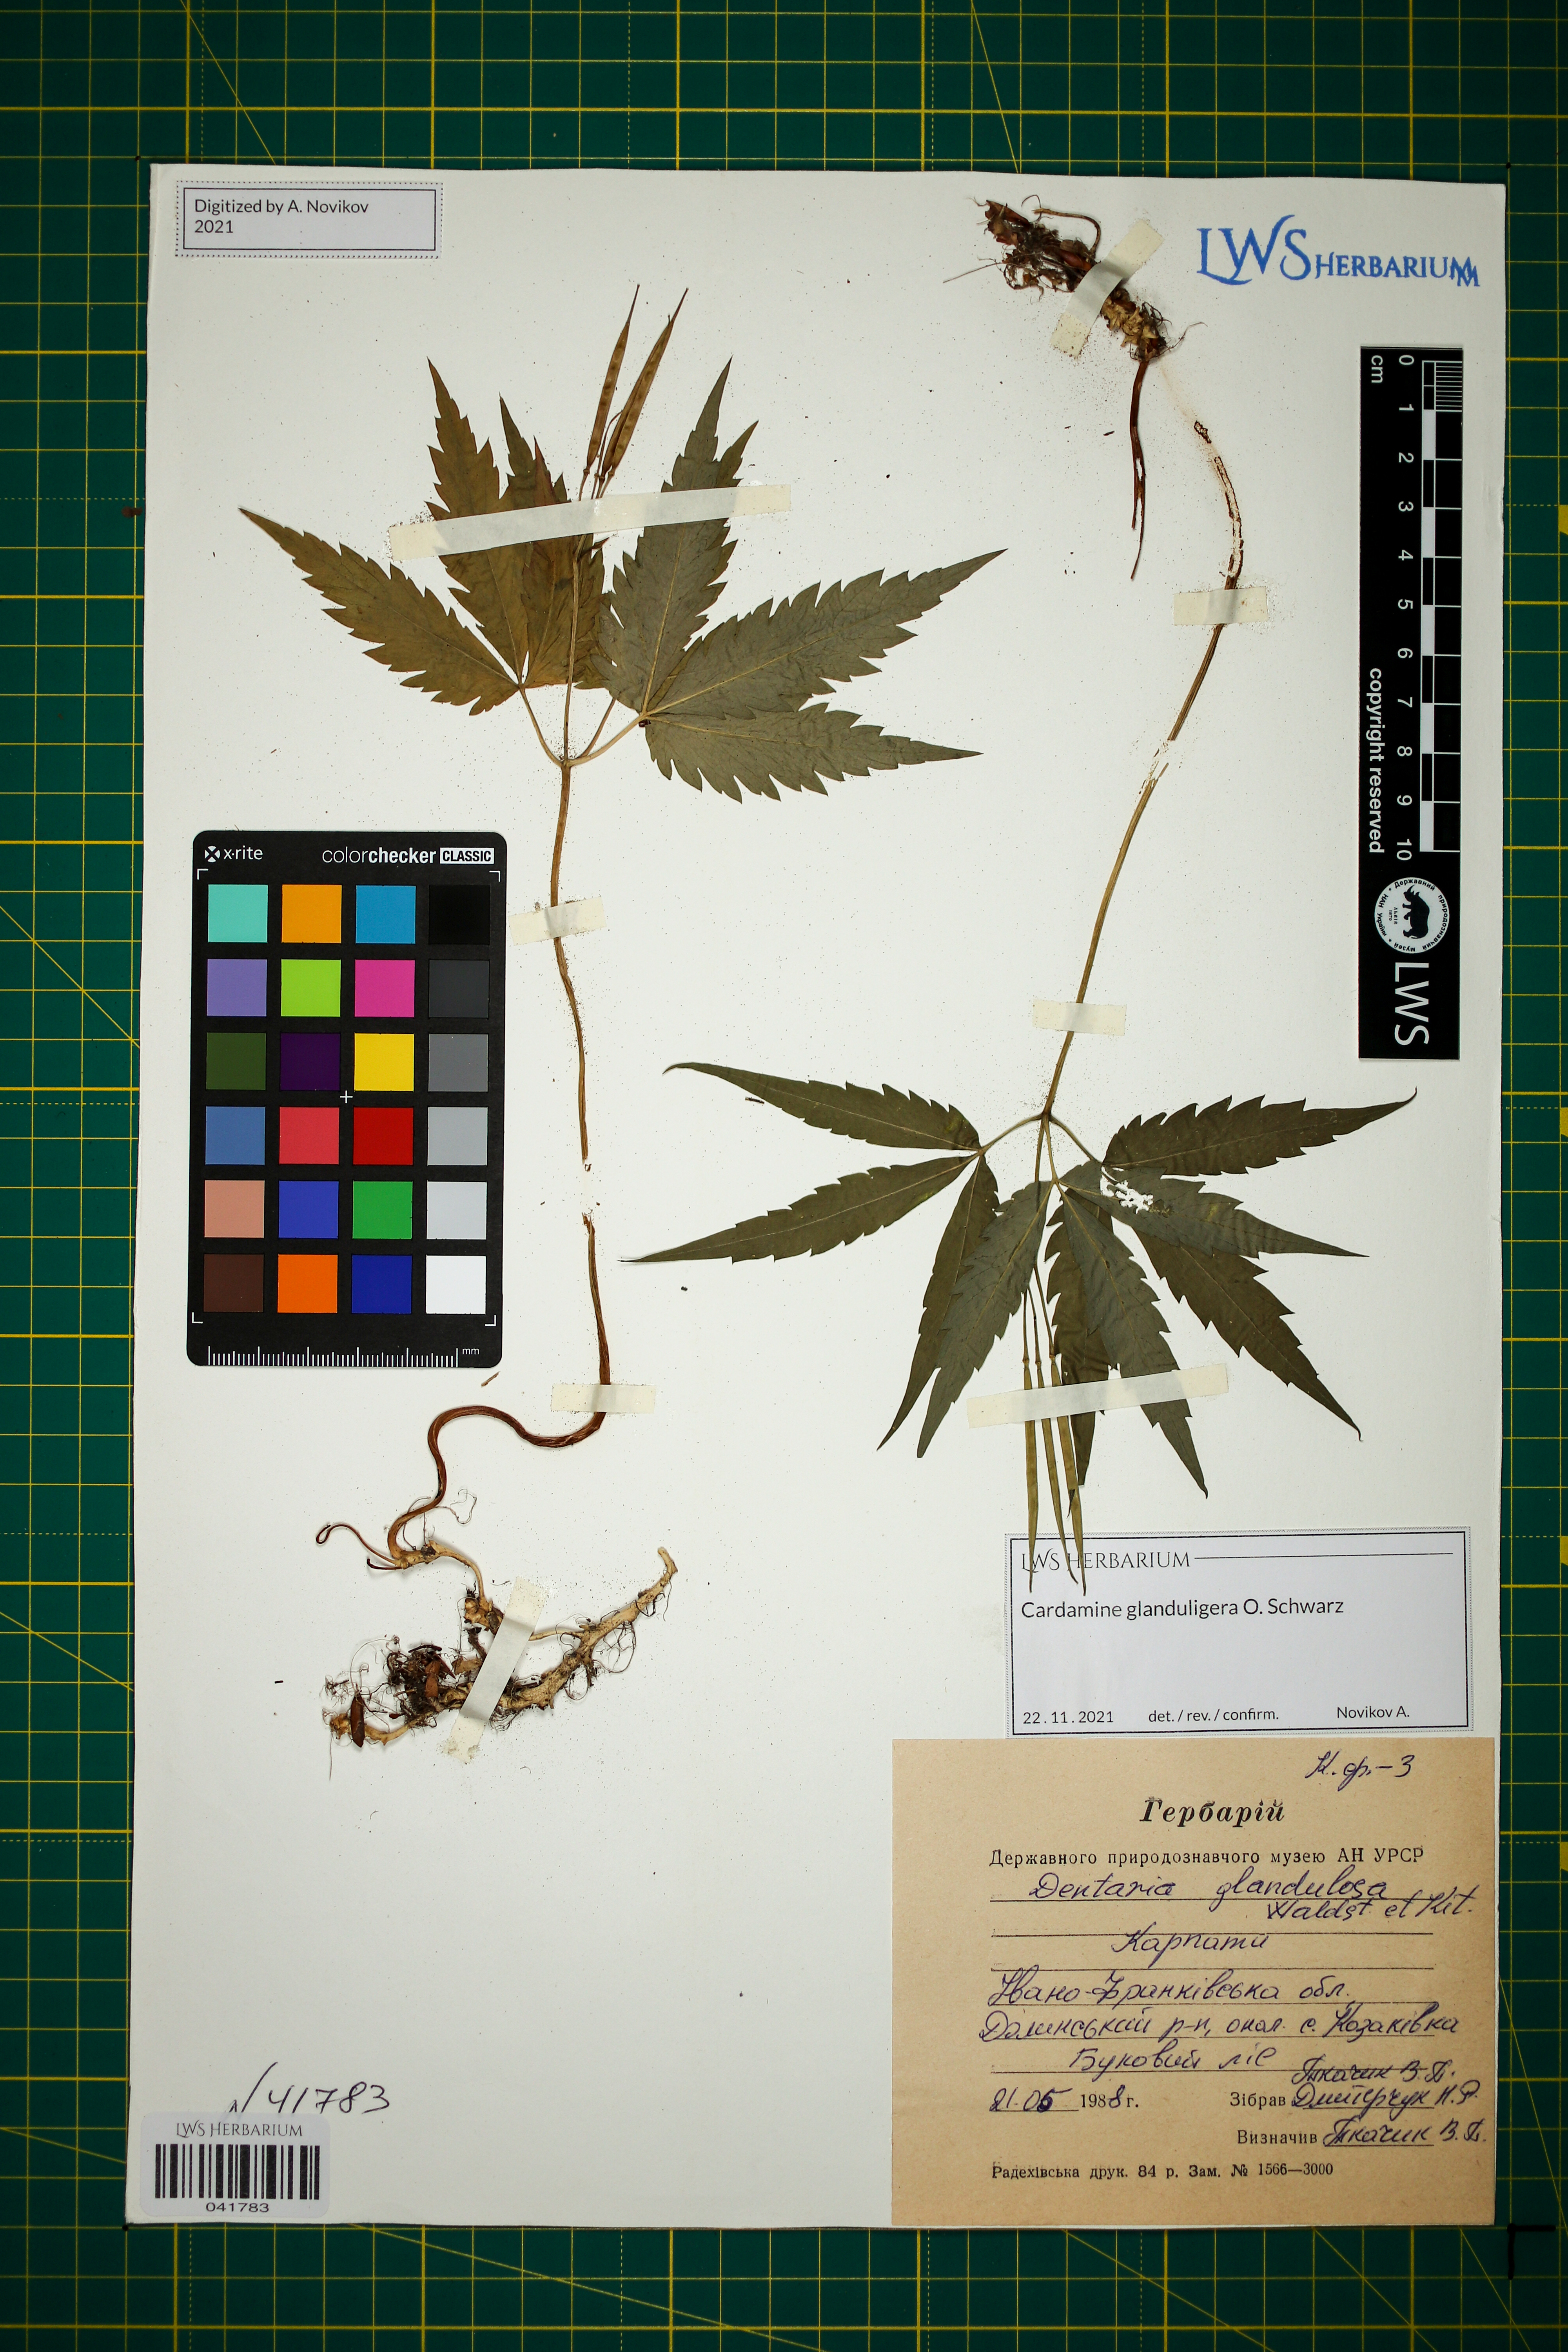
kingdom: Plantae
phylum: Tracheophyta
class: Magnoliopsida
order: Brassicales
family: Brassicaceae
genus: Cardamine
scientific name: Cardamine glanduligera
